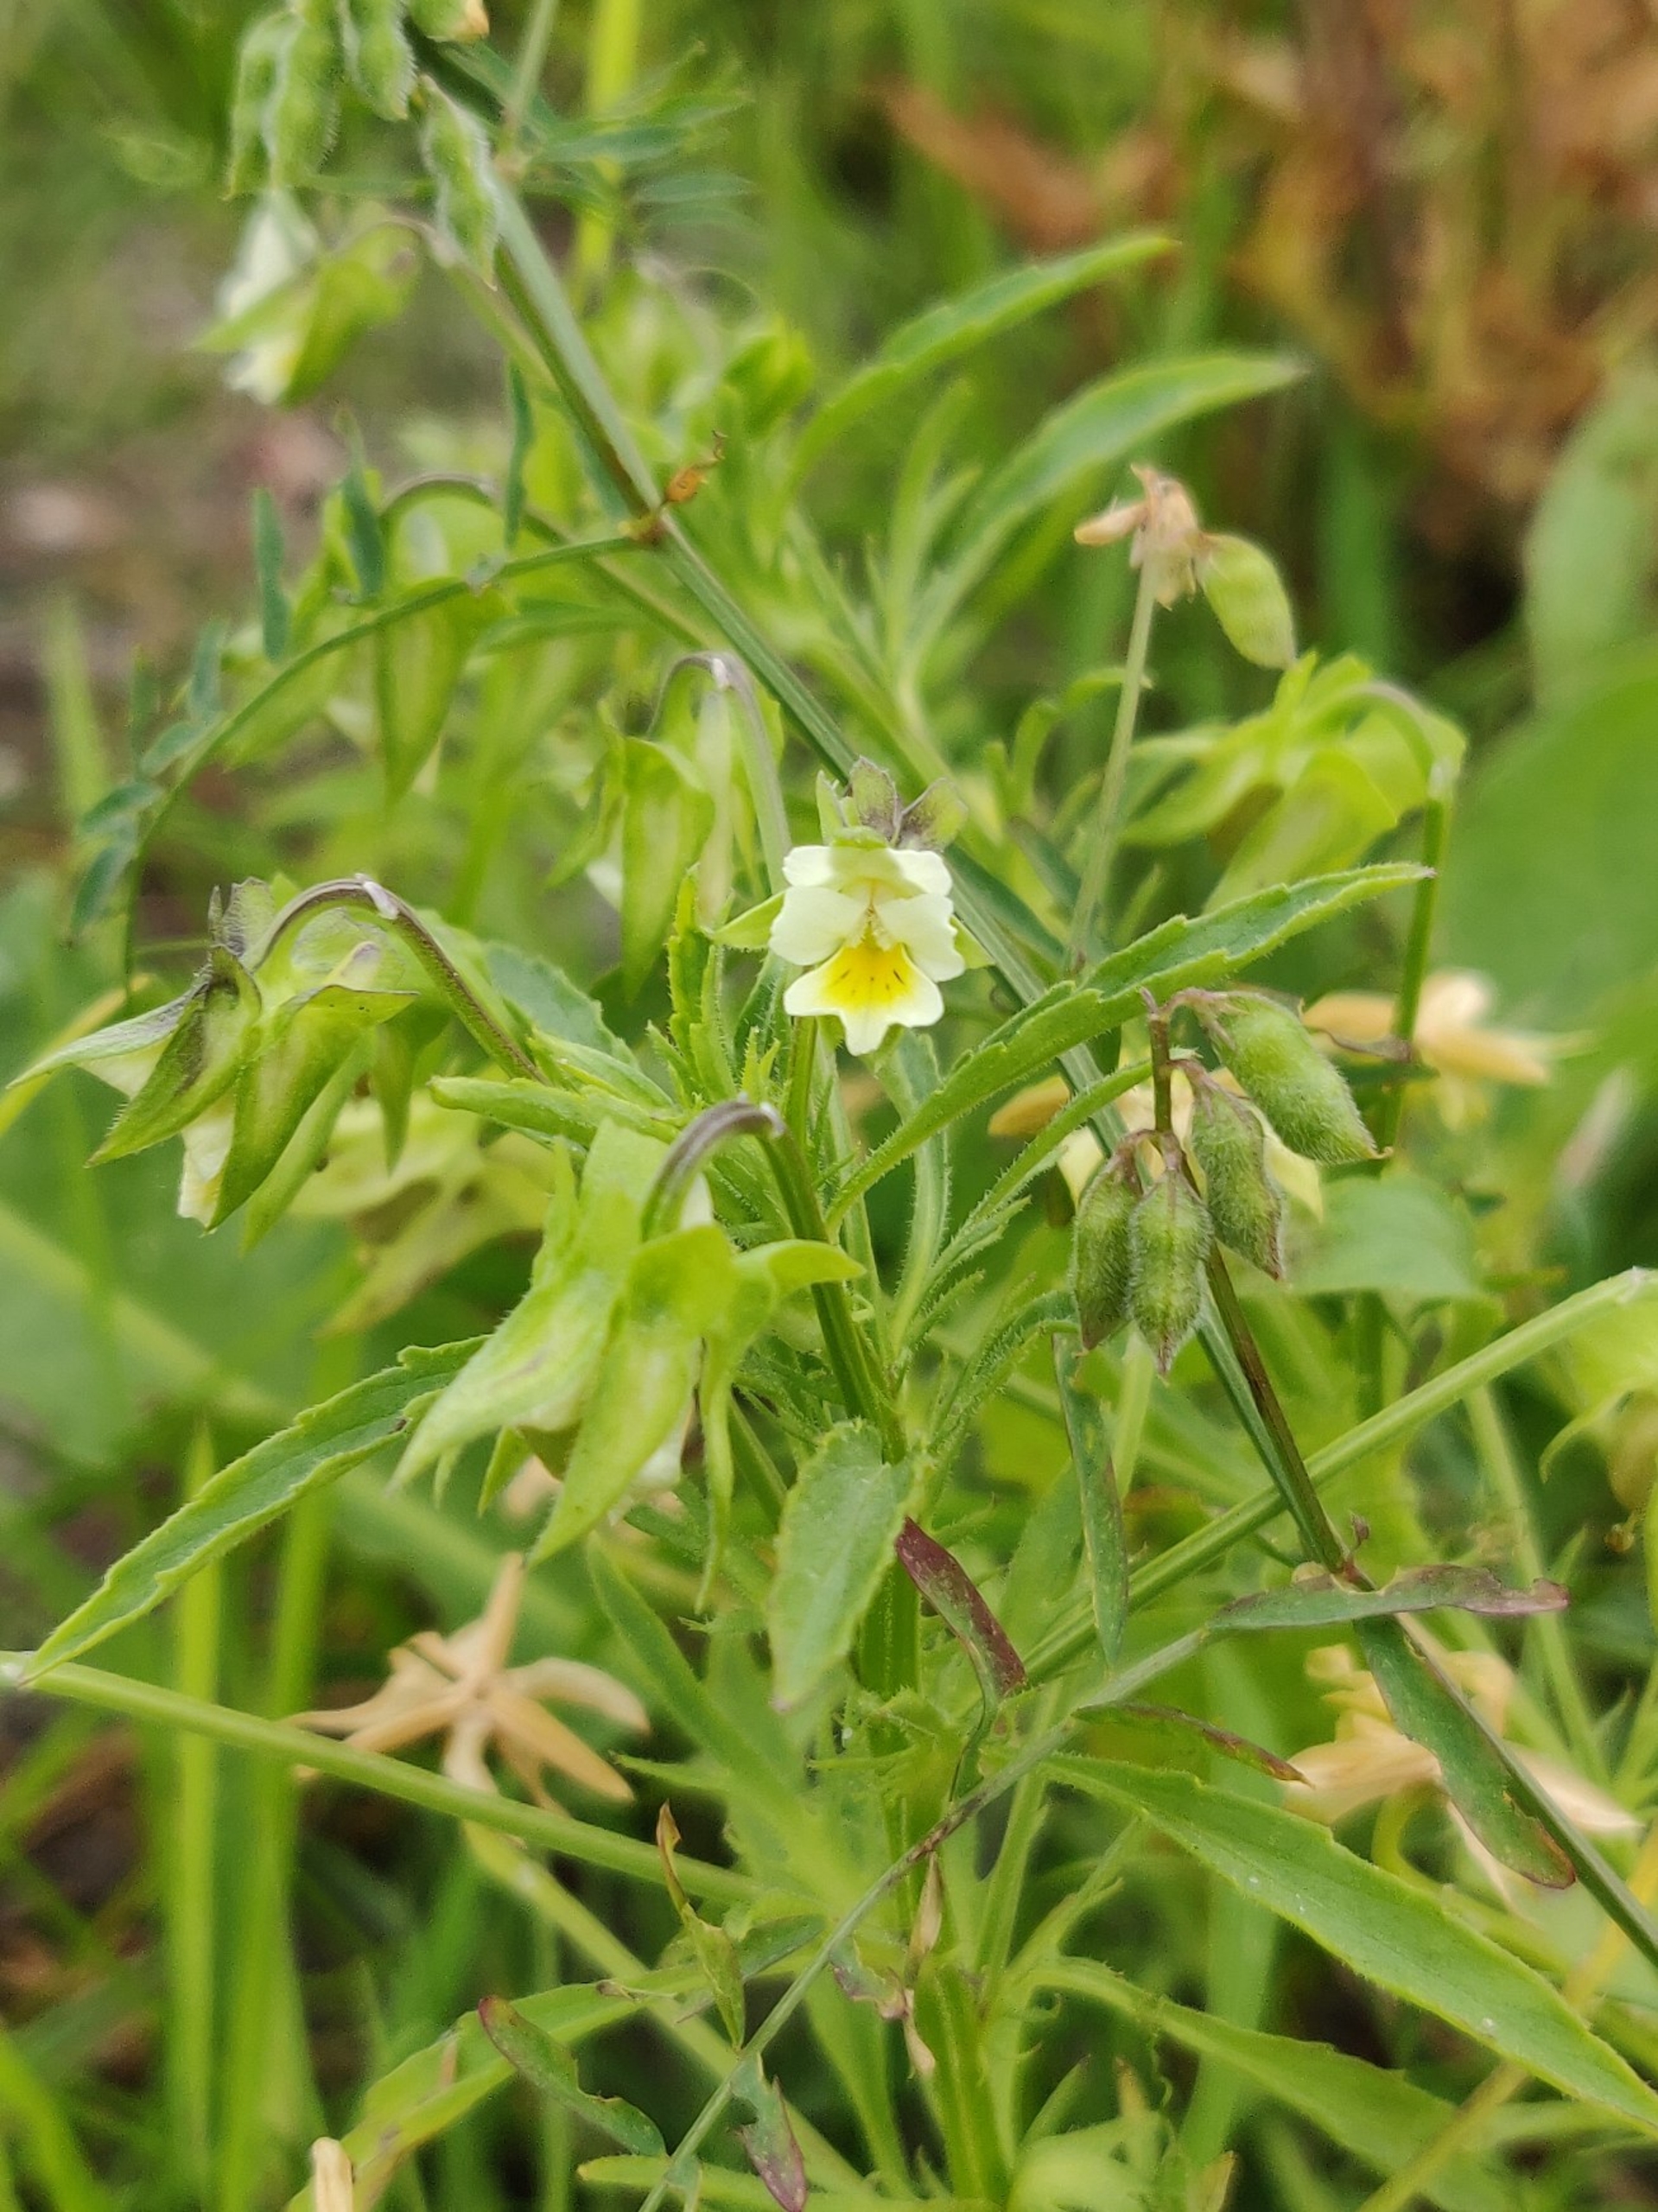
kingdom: Plantae
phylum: Tracheophyta
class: Magnoliopsida
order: Malpighiales
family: Violaceae
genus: Viola
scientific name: Viola arvensis
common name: Ager-stedmoderblomst
